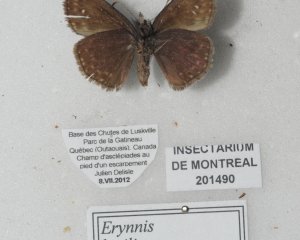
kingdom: Animalia
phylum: Arthropoda
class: Insecta
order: Lepidoptera
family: Hesperiidae
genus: Gesta
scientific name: Gesta
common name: Columbine Duskywing
